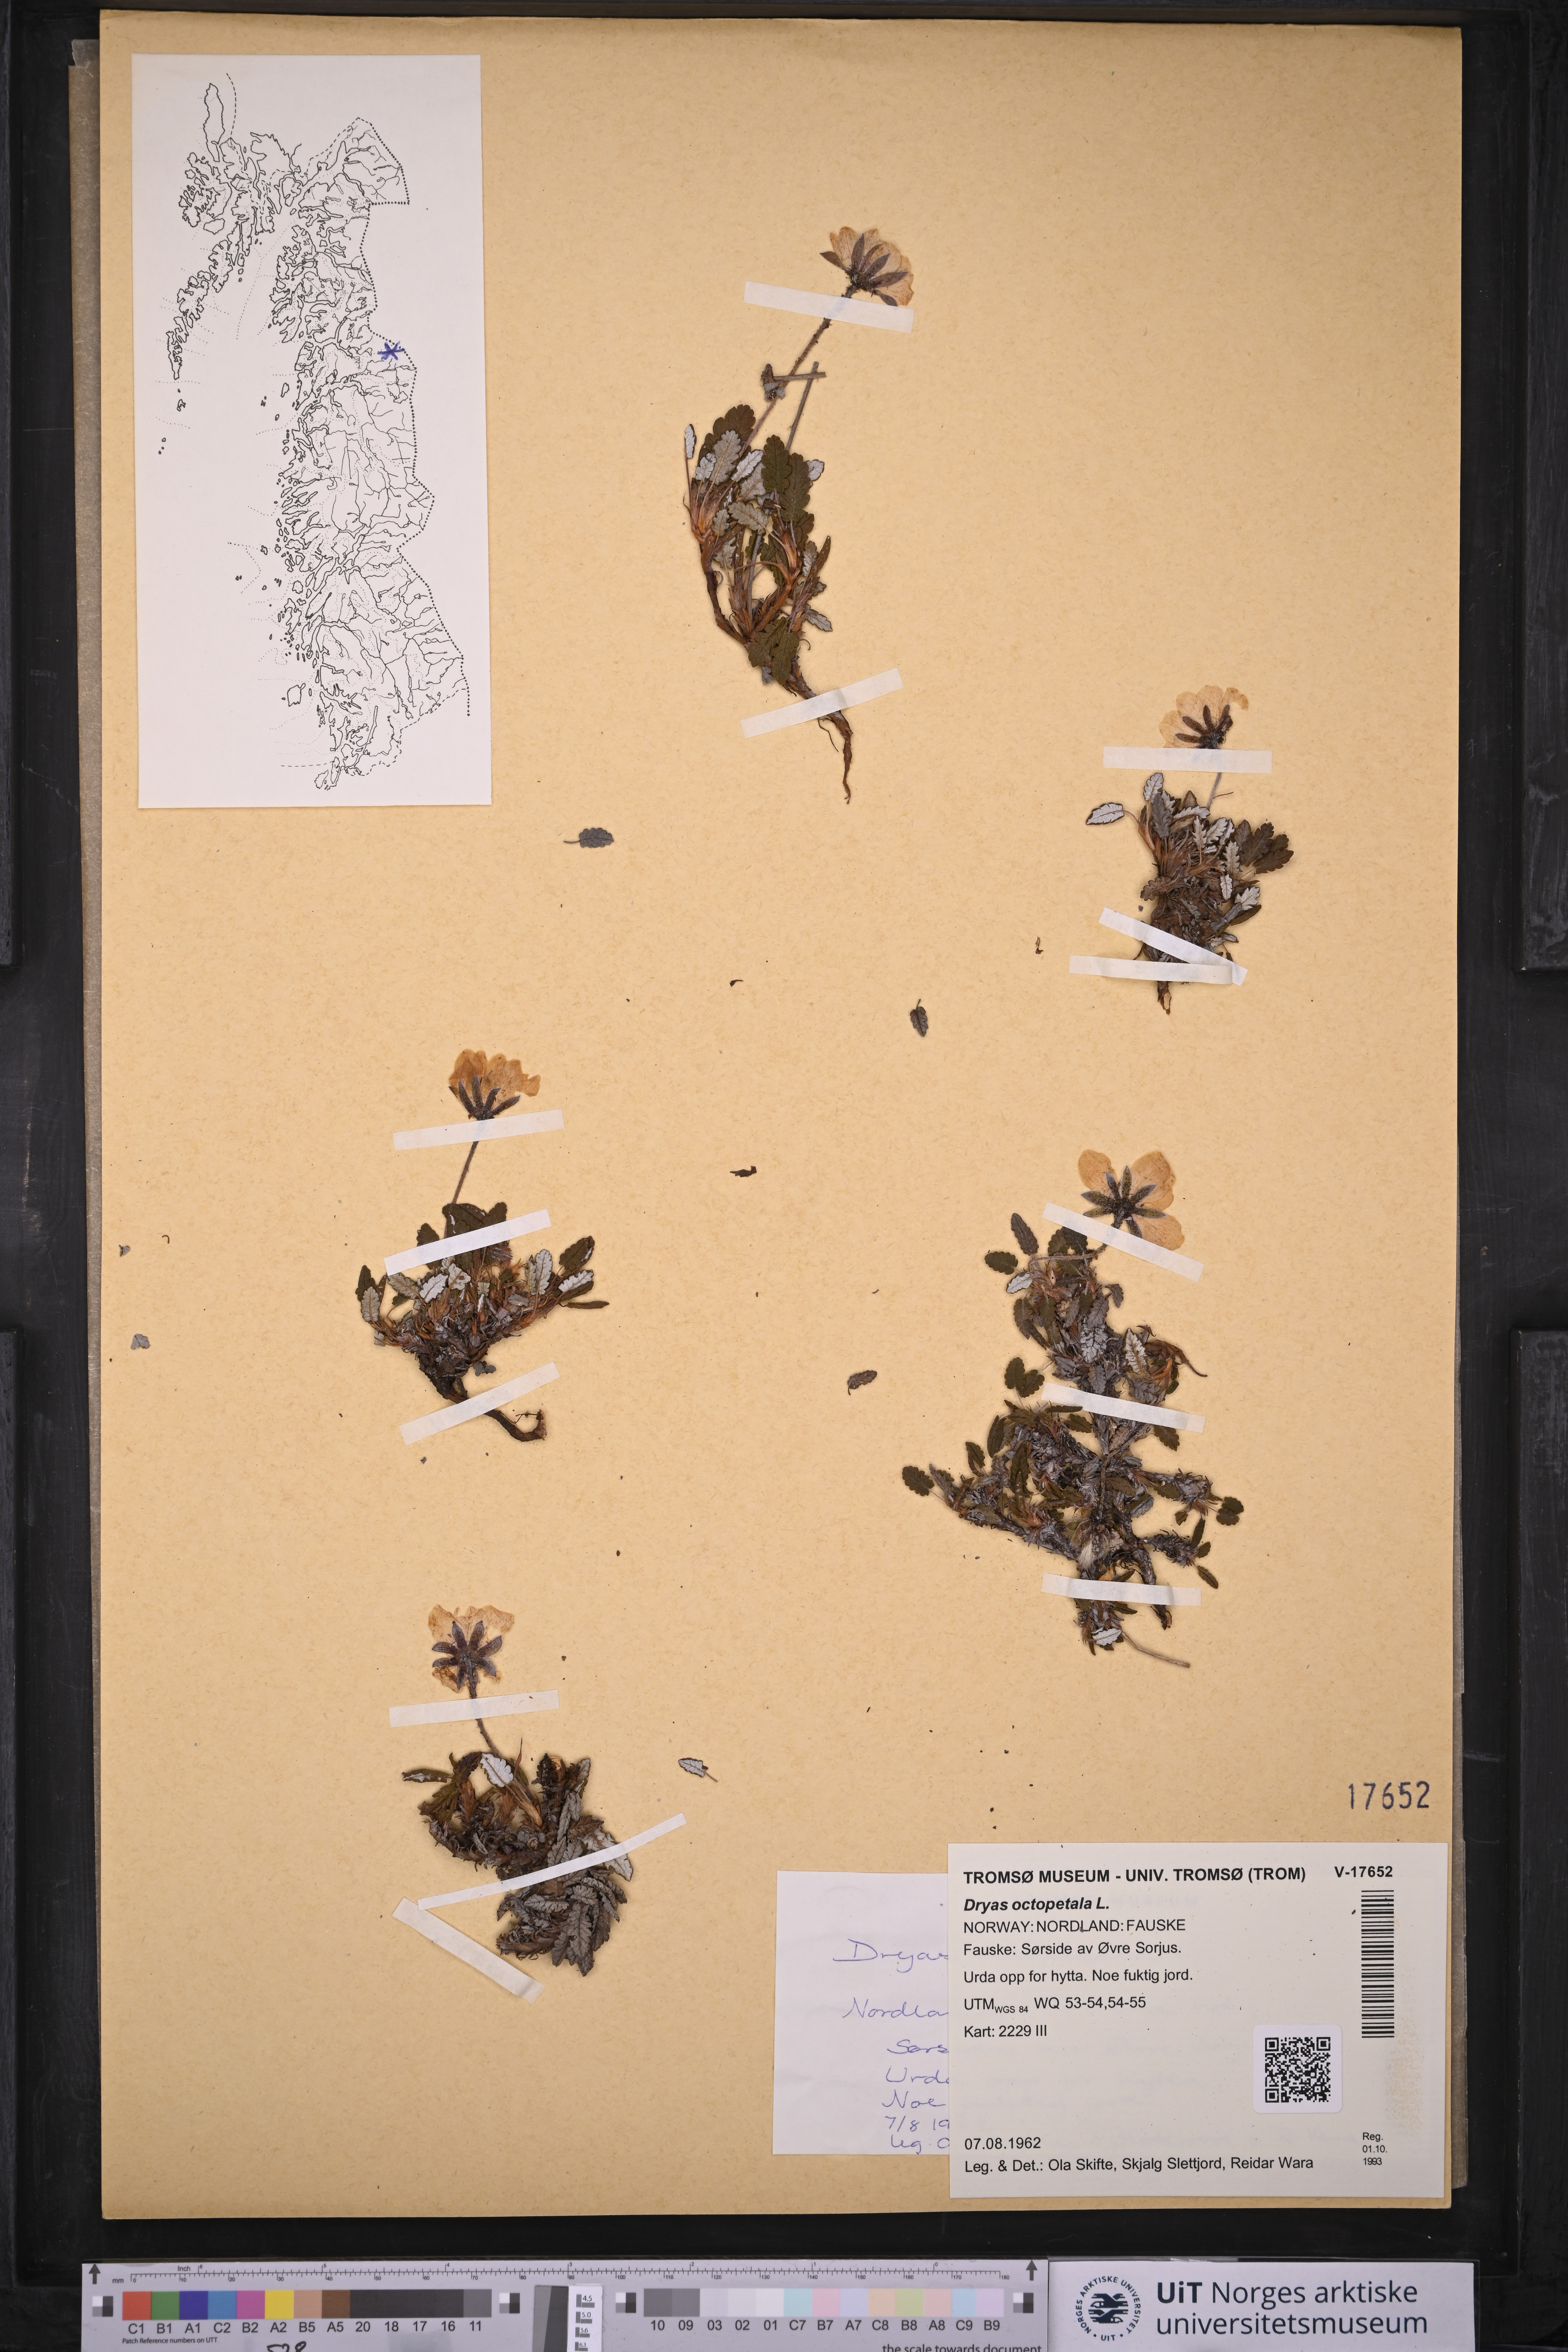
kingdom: Plantae
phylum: Tracheophyta
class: Magnoliopsida
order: Rosales
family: Rosaceae
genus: Dryas
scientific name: Dryas octopetala
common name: Eight-petal mountain-avens
